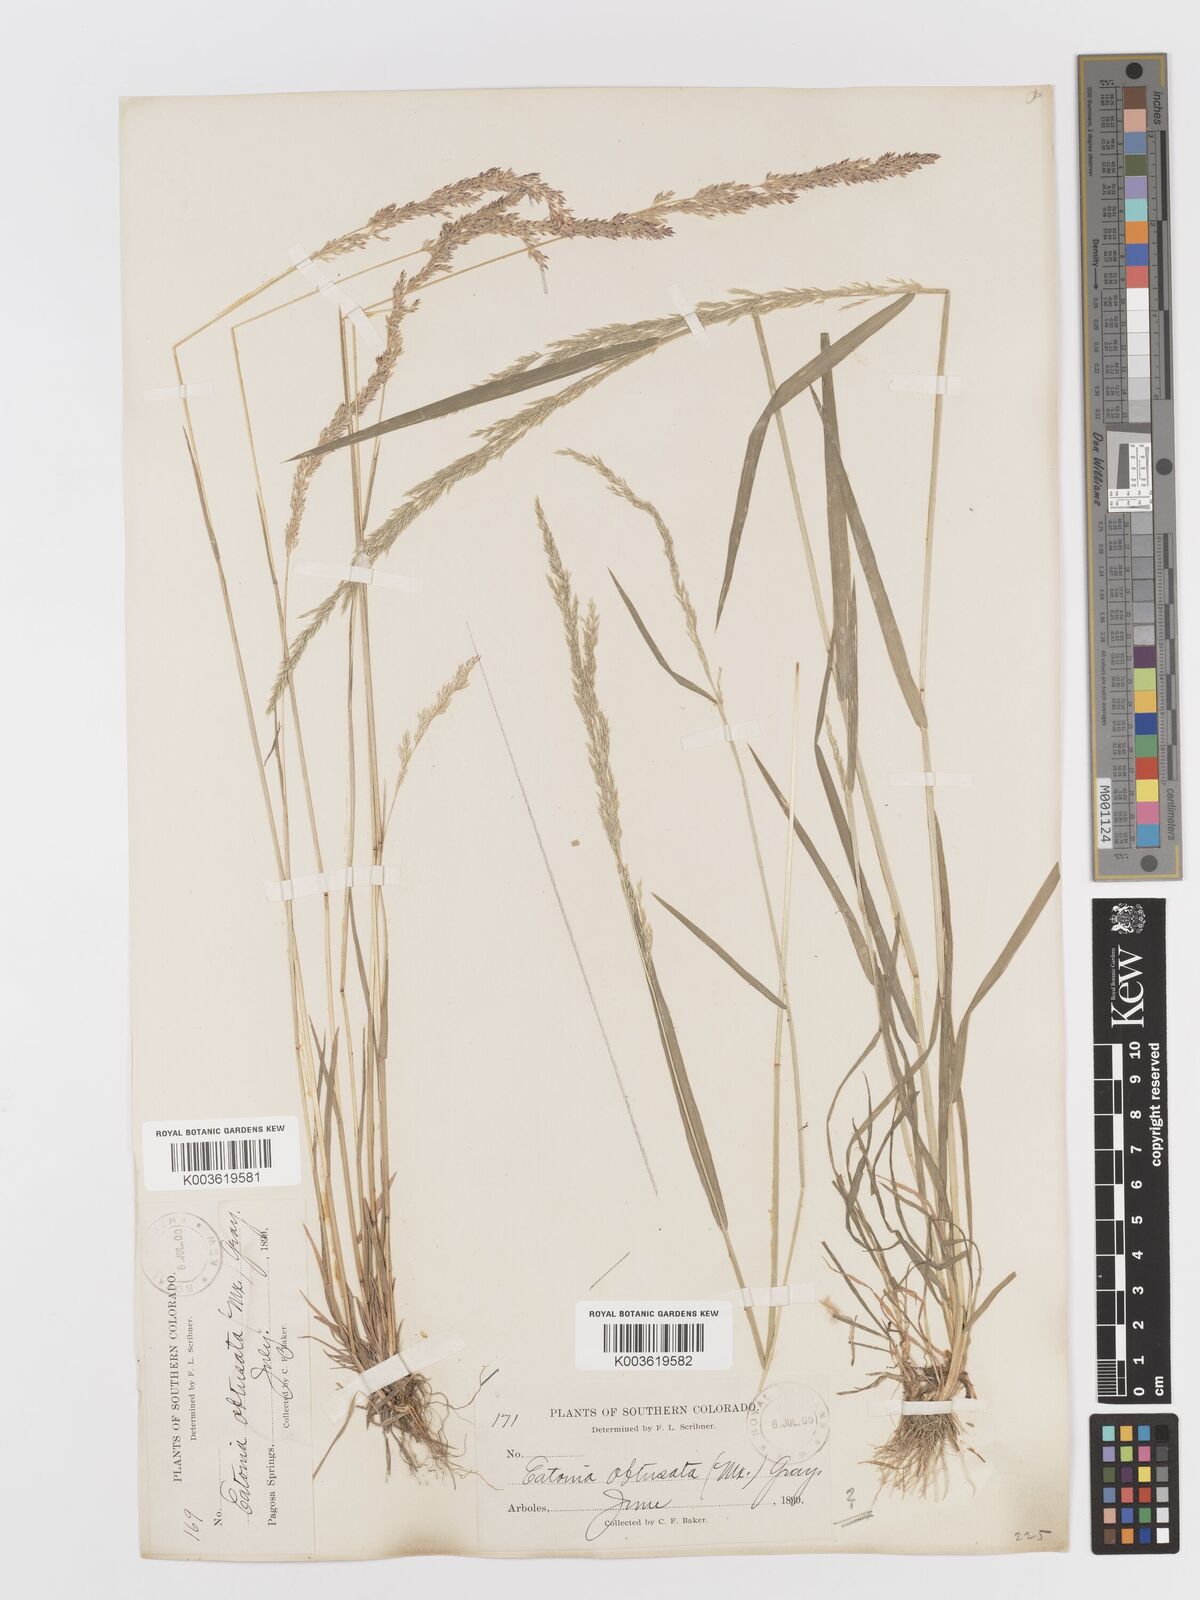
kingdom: Plantae
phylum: Tracheophyta
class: Liliopsida
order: Poales
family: Poaceae
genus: Sphenopholis
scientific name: Sphenopholis obtusata
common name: Prairie grass
